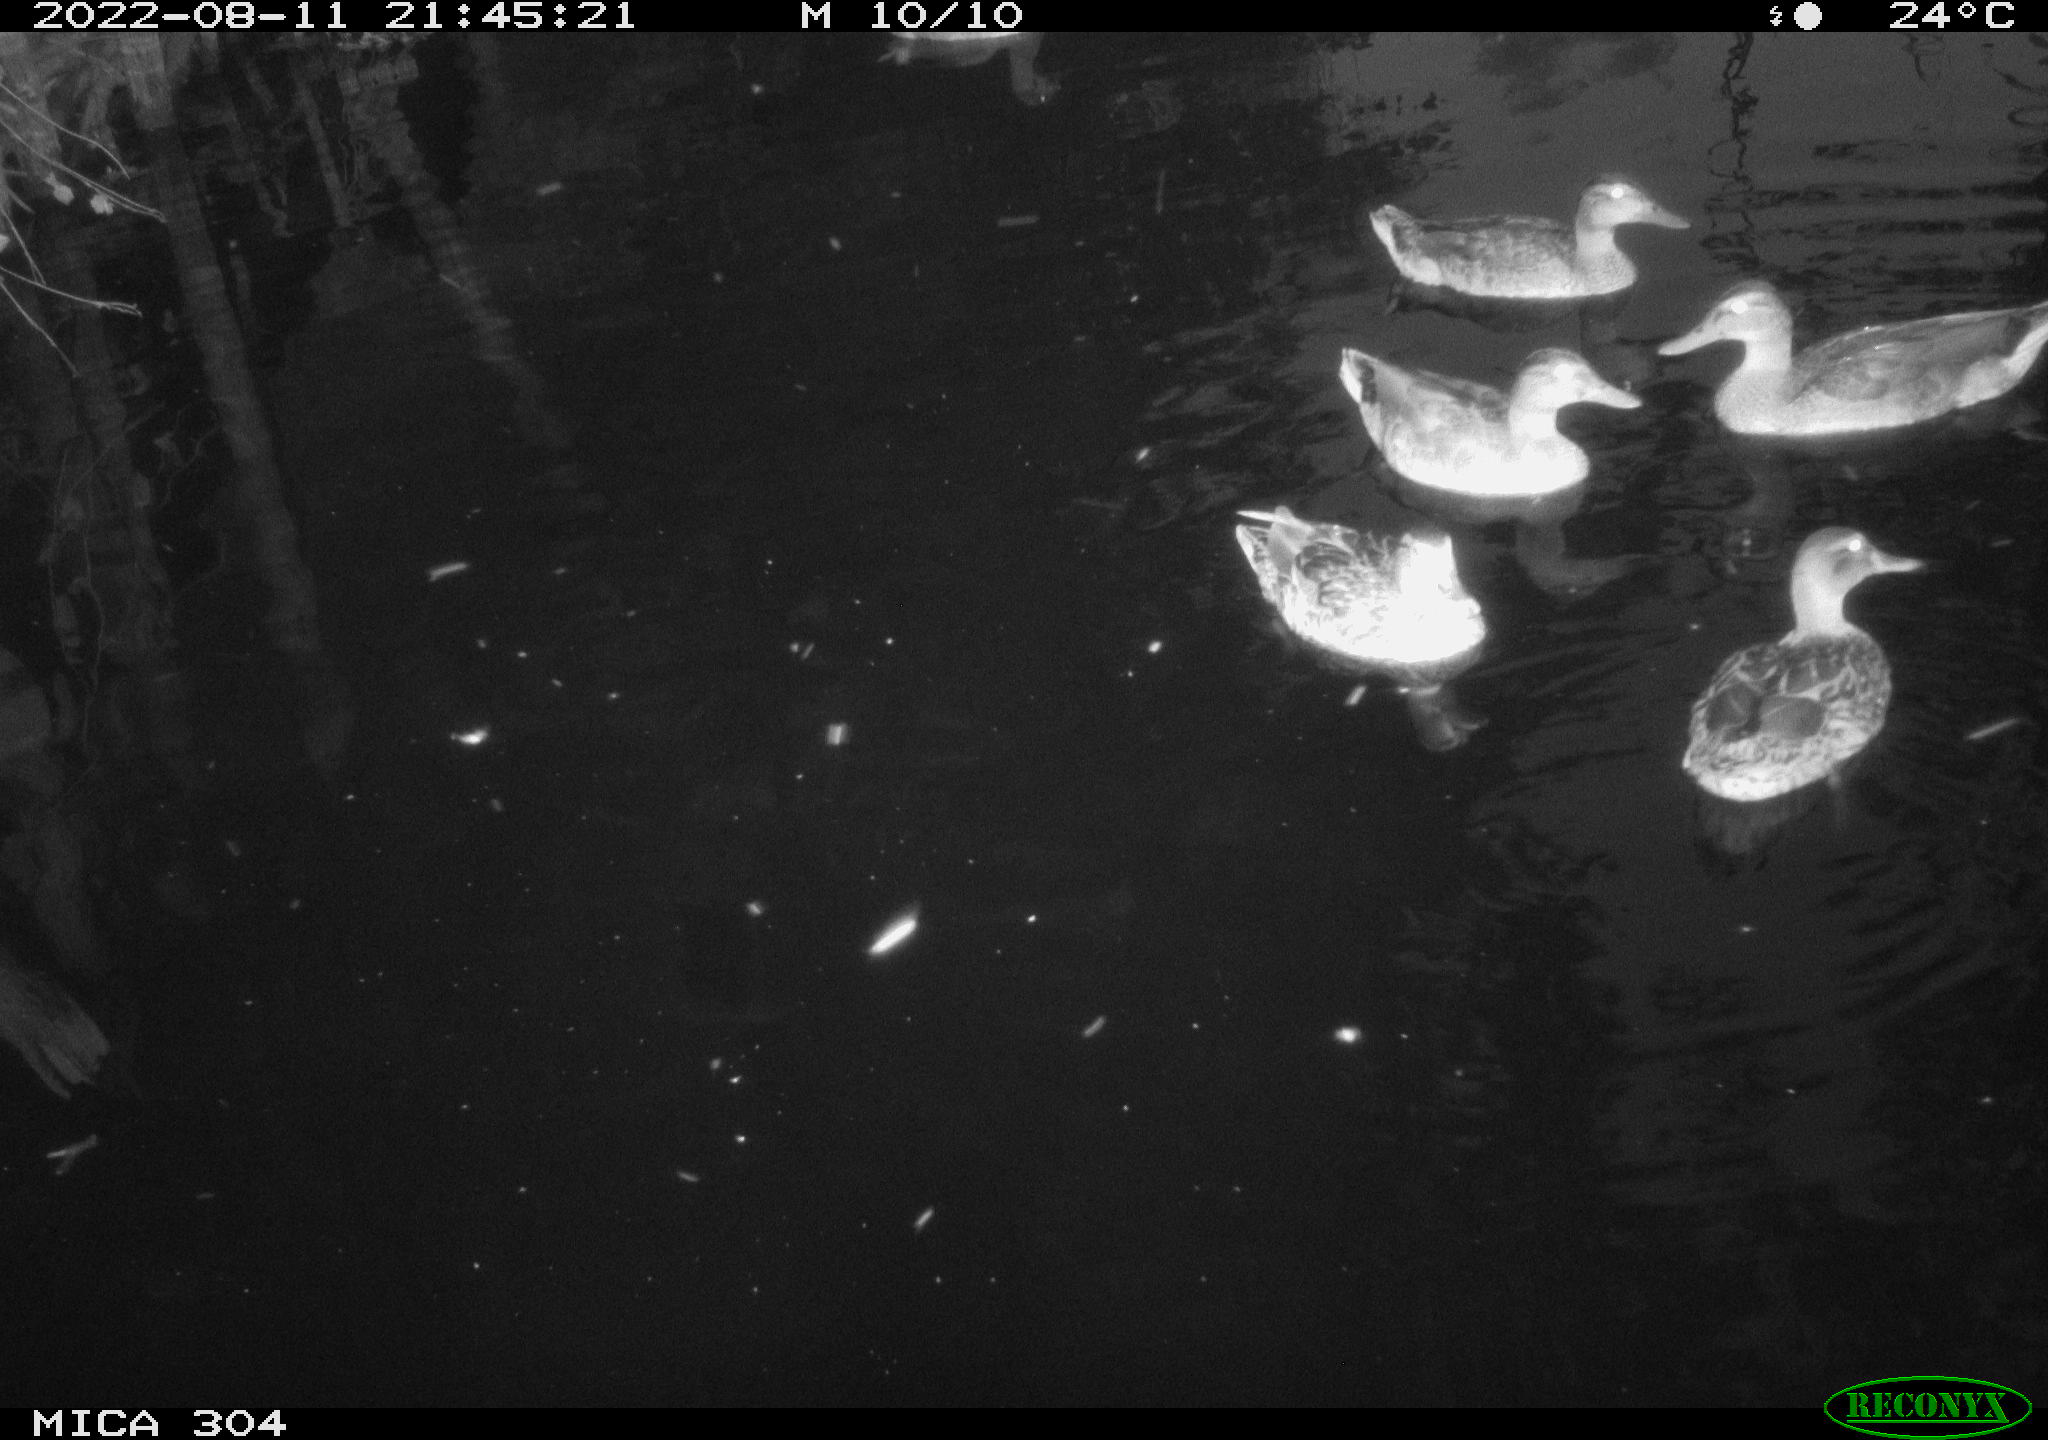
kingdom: Animalia
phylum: Chordata
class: Aves
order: Anseriformes
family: Anatidae
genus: Mareca
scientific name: Mareca strepera
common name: Gadwall
